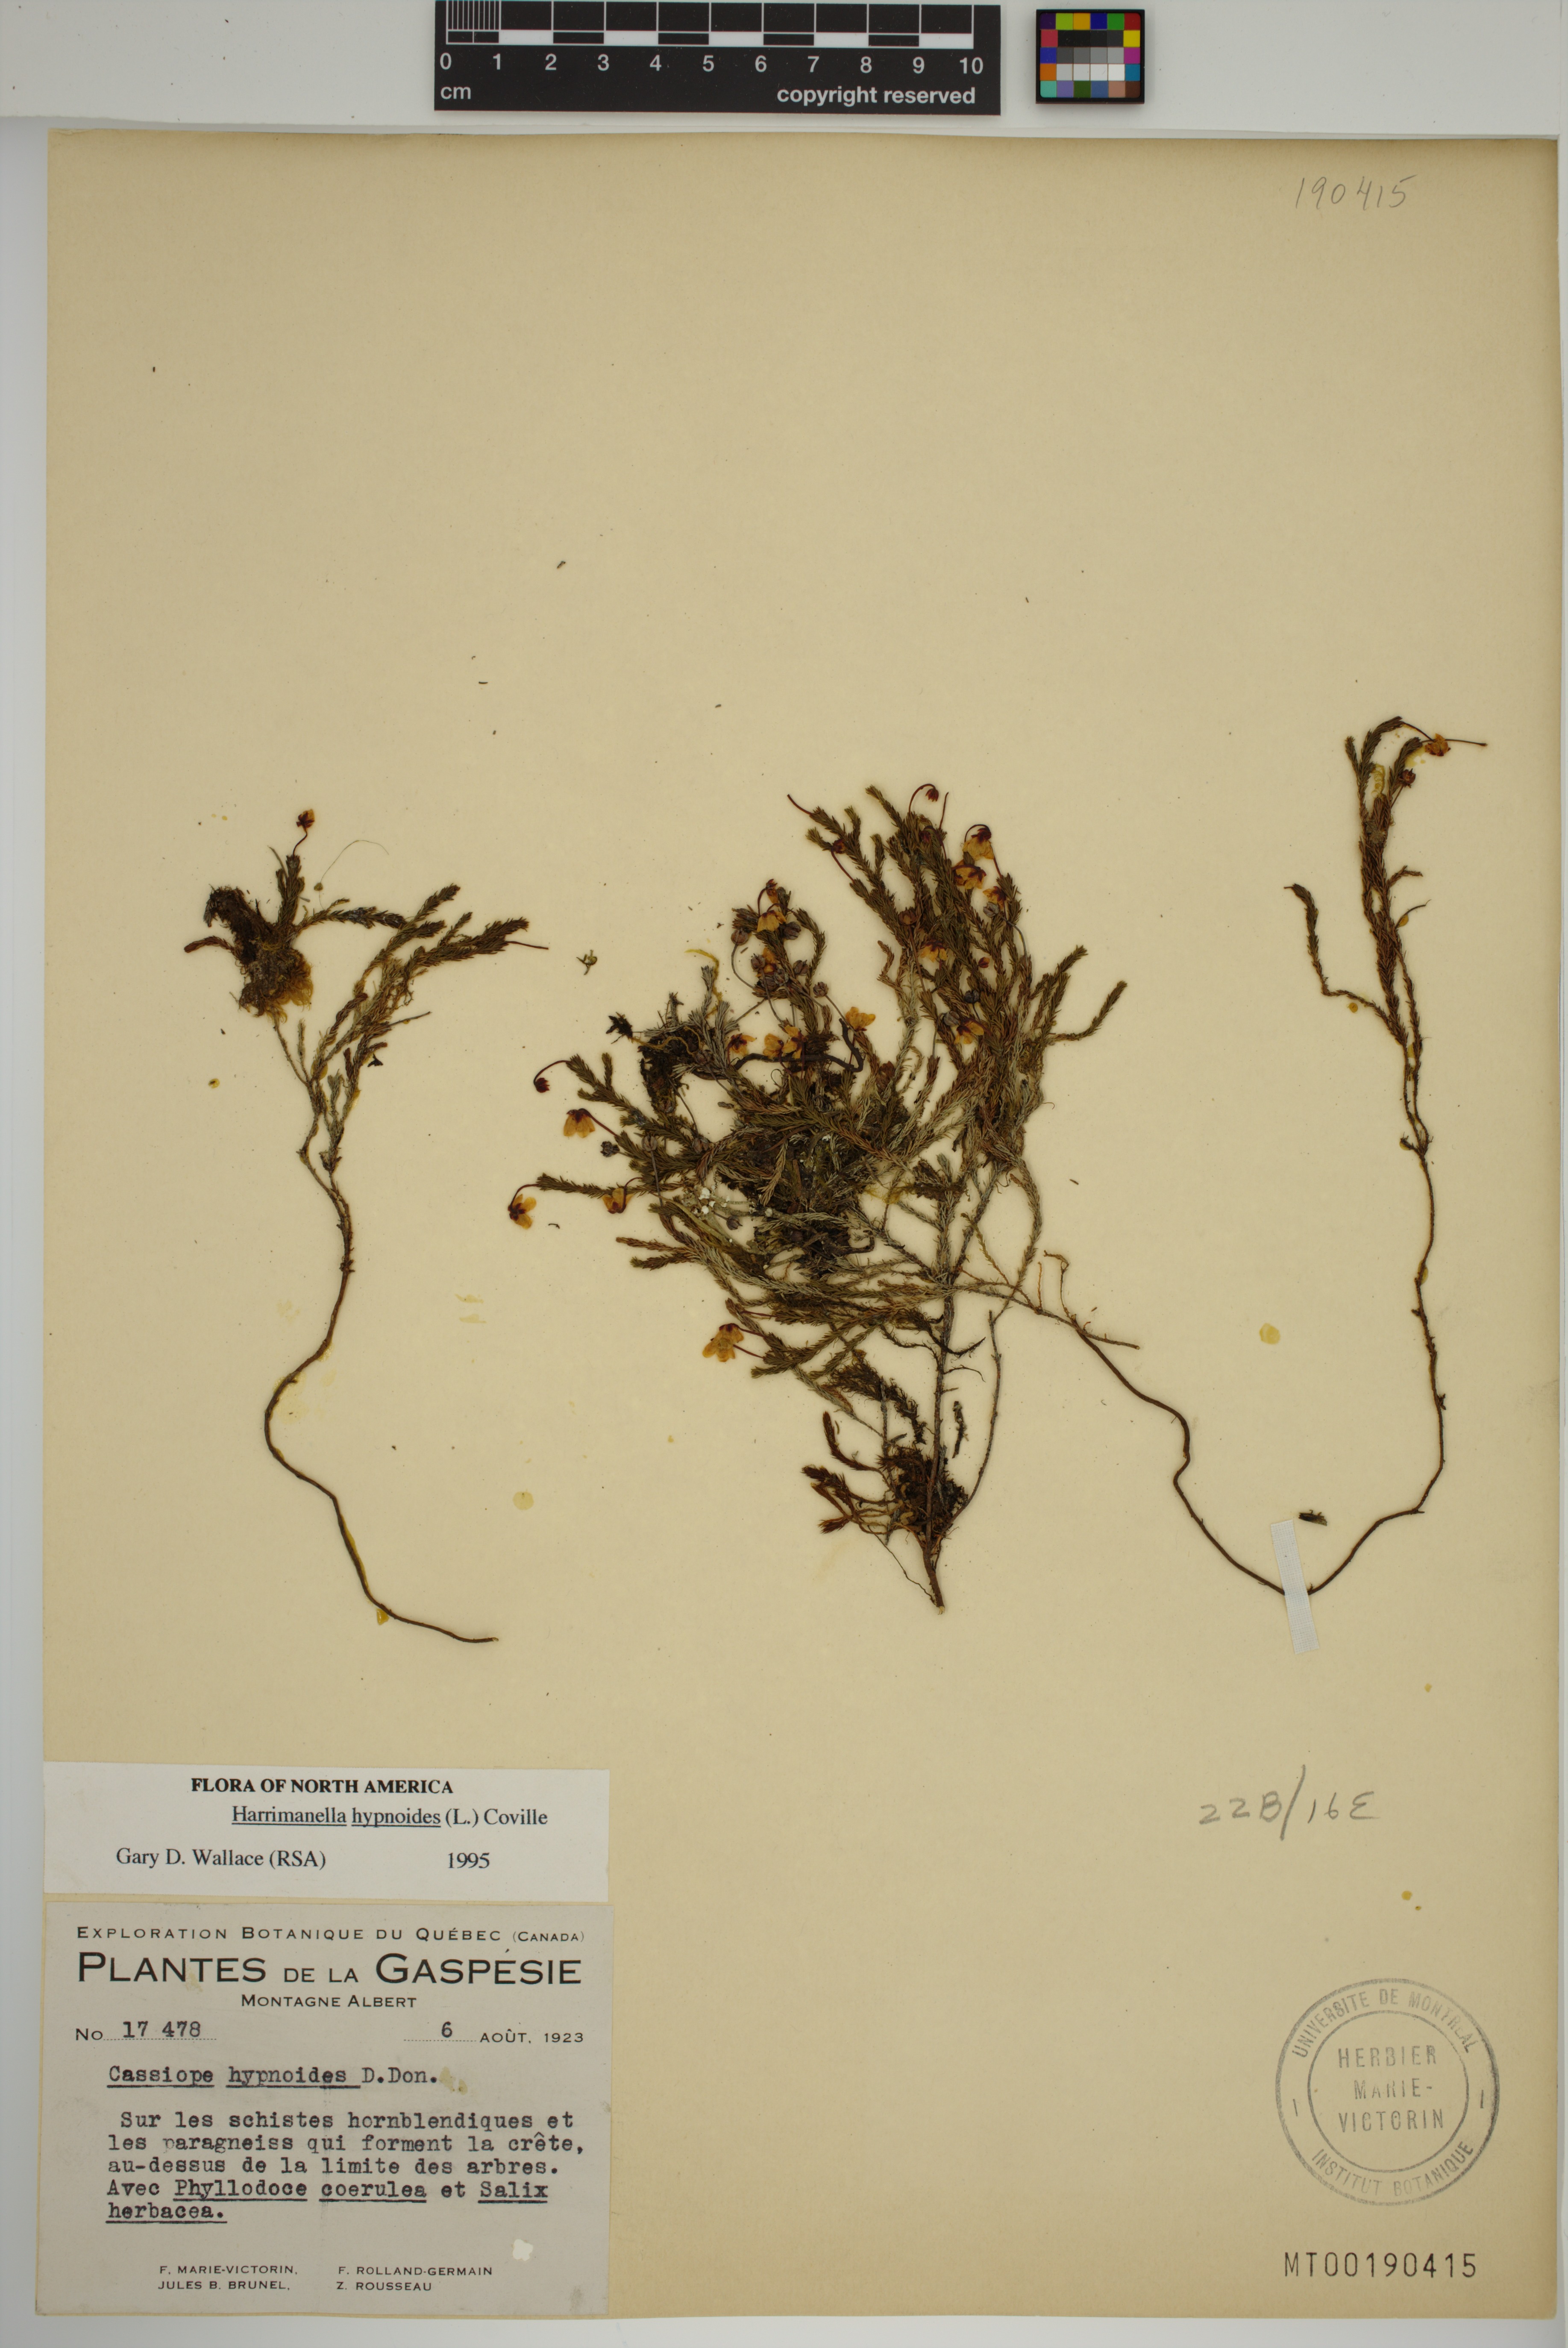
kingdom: Plantae
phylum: Tracheophyta
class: Magnoliopsida
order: Ericales
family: Ericaceae
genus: Harrimanella
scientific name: Harrimanella hypnoides
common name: Moss bell heather
